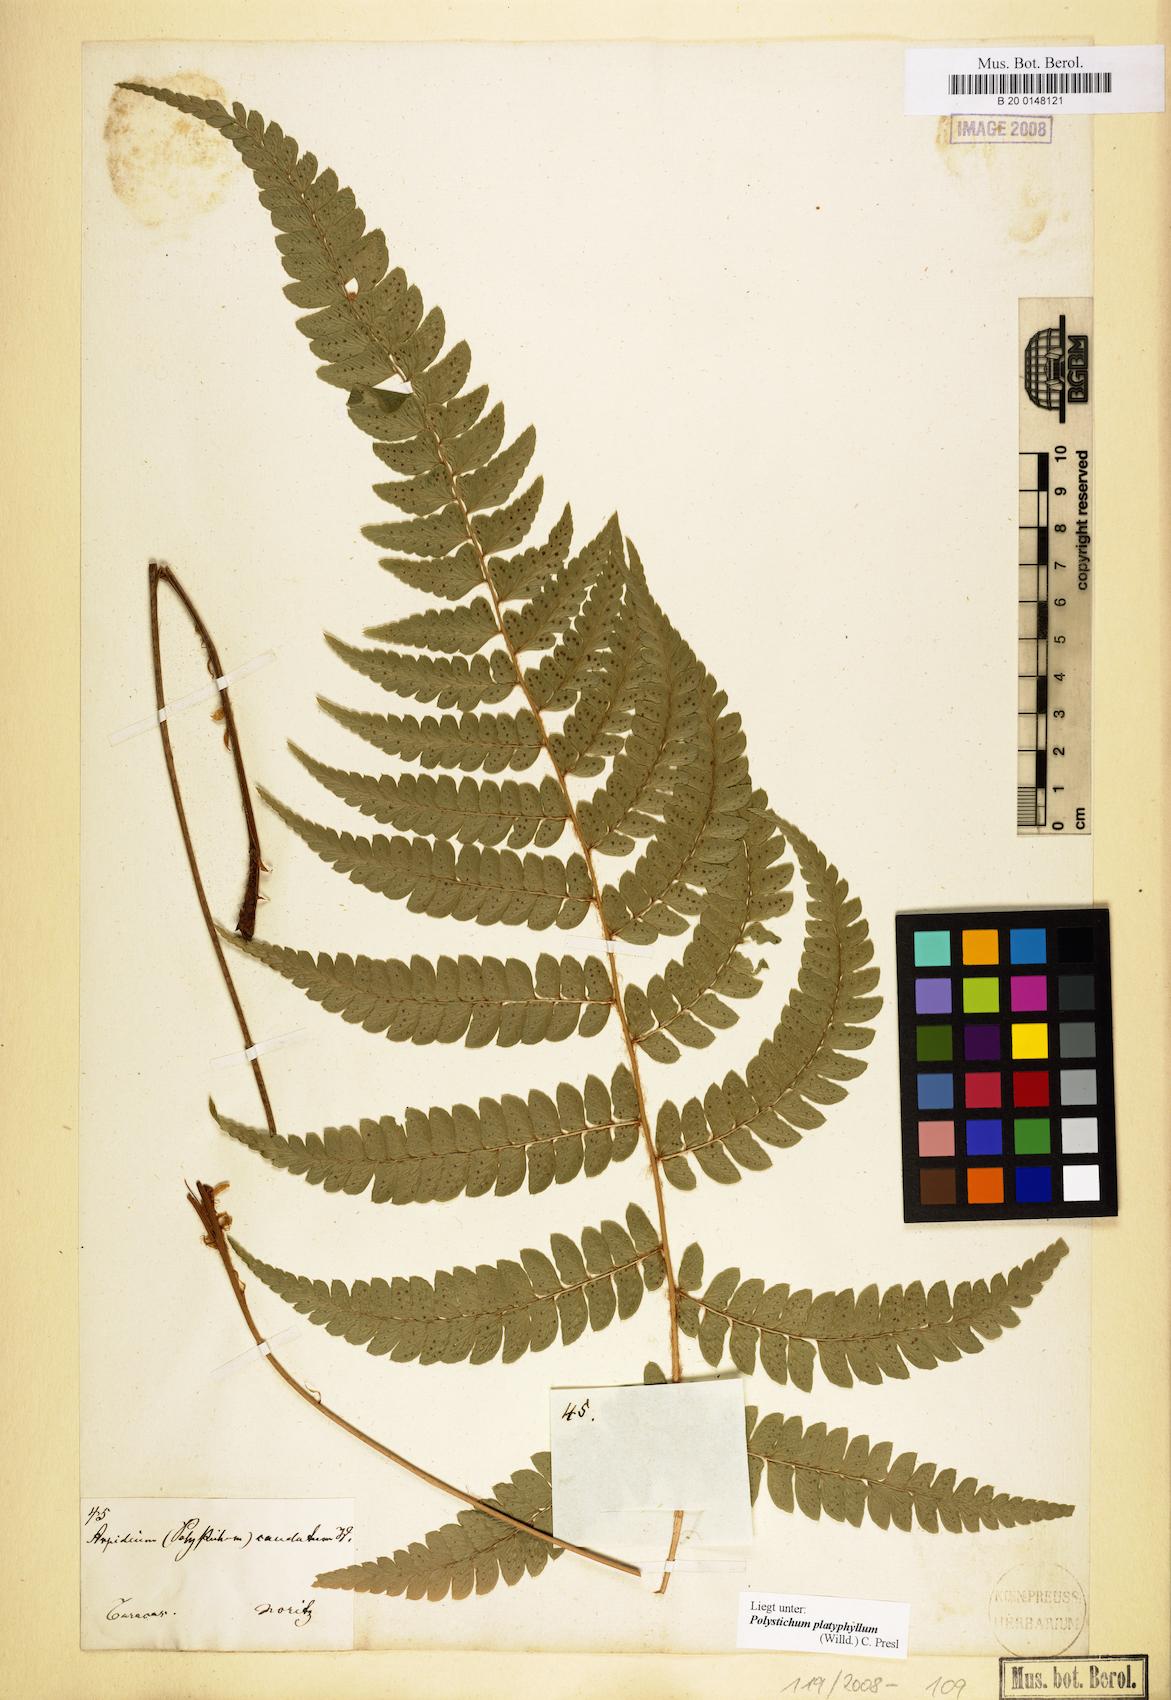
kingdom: Plantae
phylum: Tracheophyta
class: Polypodiopsida
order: Polypodiales
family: Dryopteridaceae
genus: Polystichum
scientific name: Polystichum platyphyllum
